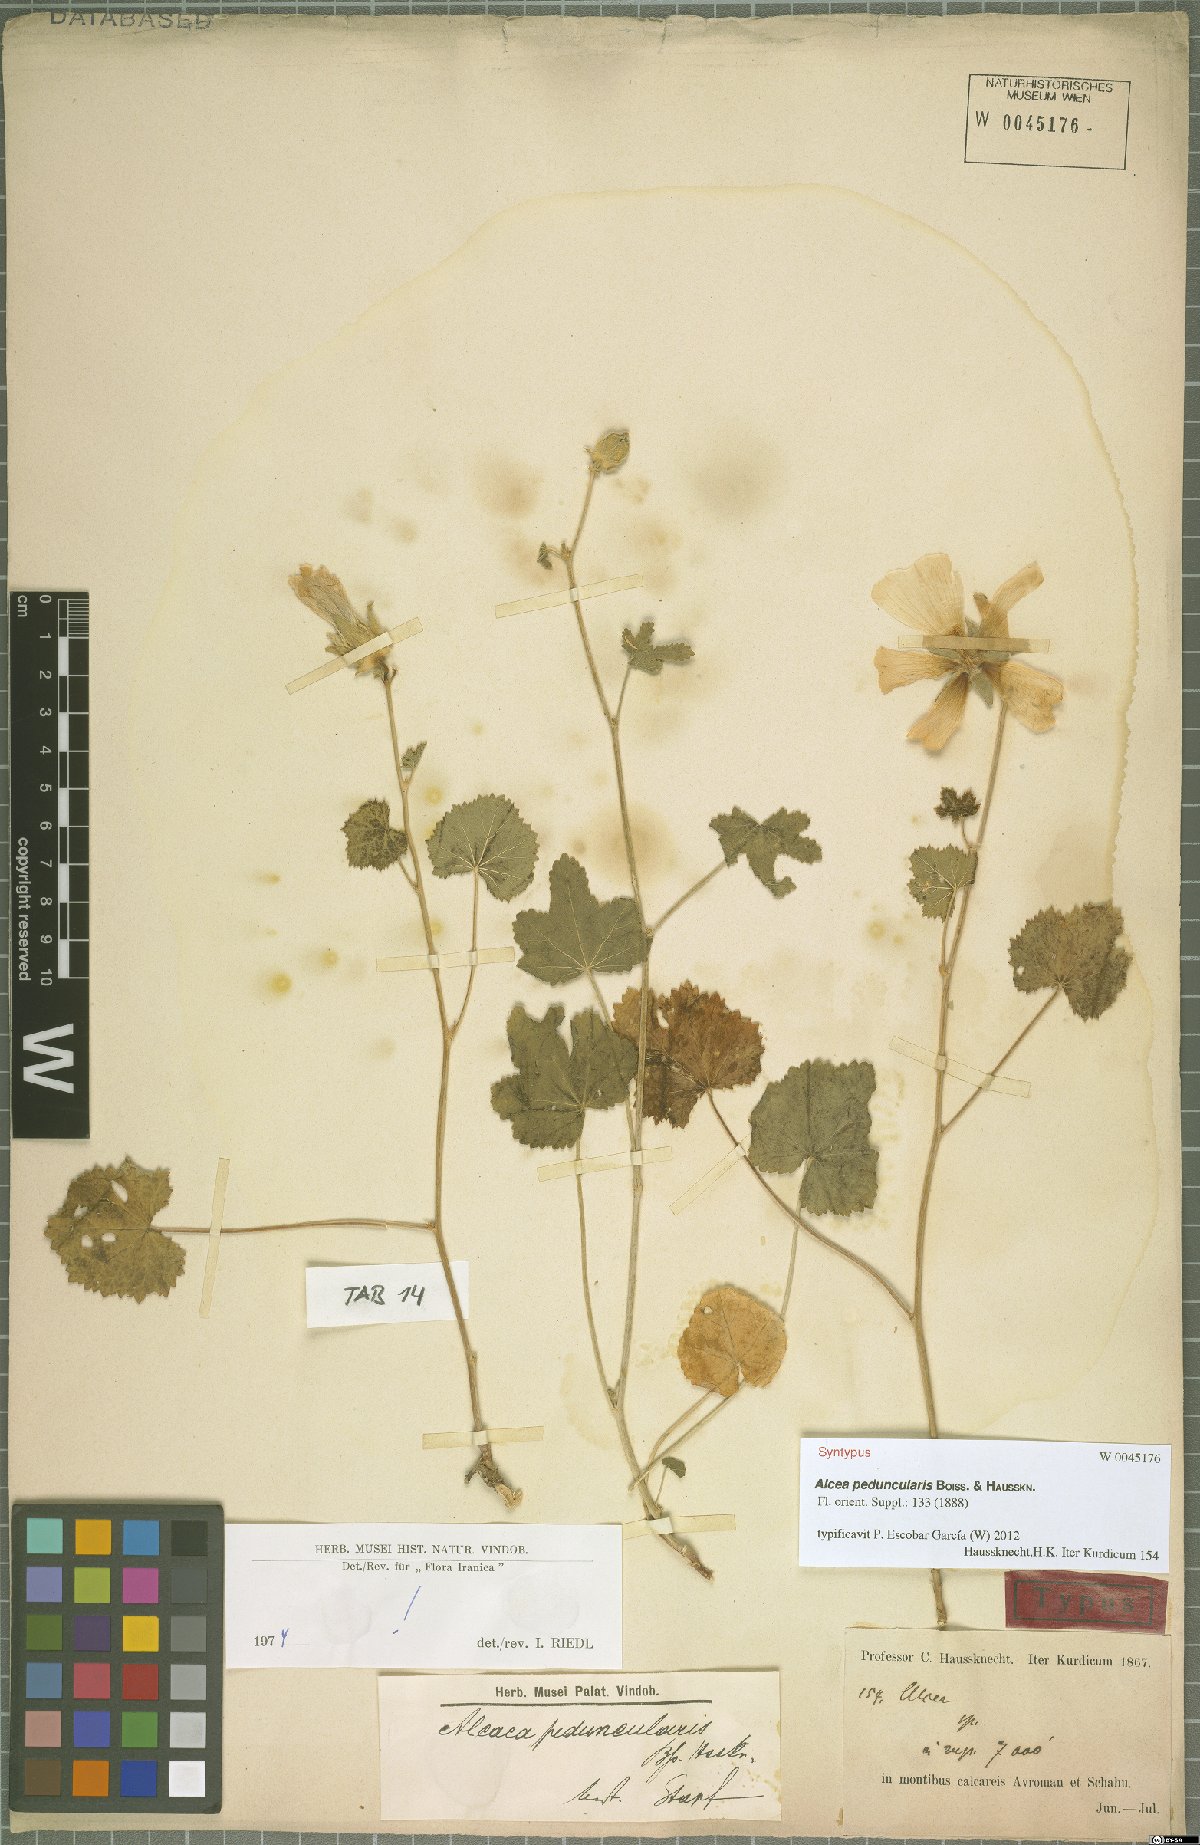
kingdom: Plantae
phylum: Tracheophyta
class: Magnoliopsida
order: Malvales
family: Malvaceae
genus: Alcea
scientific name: Alcea peduncularis
